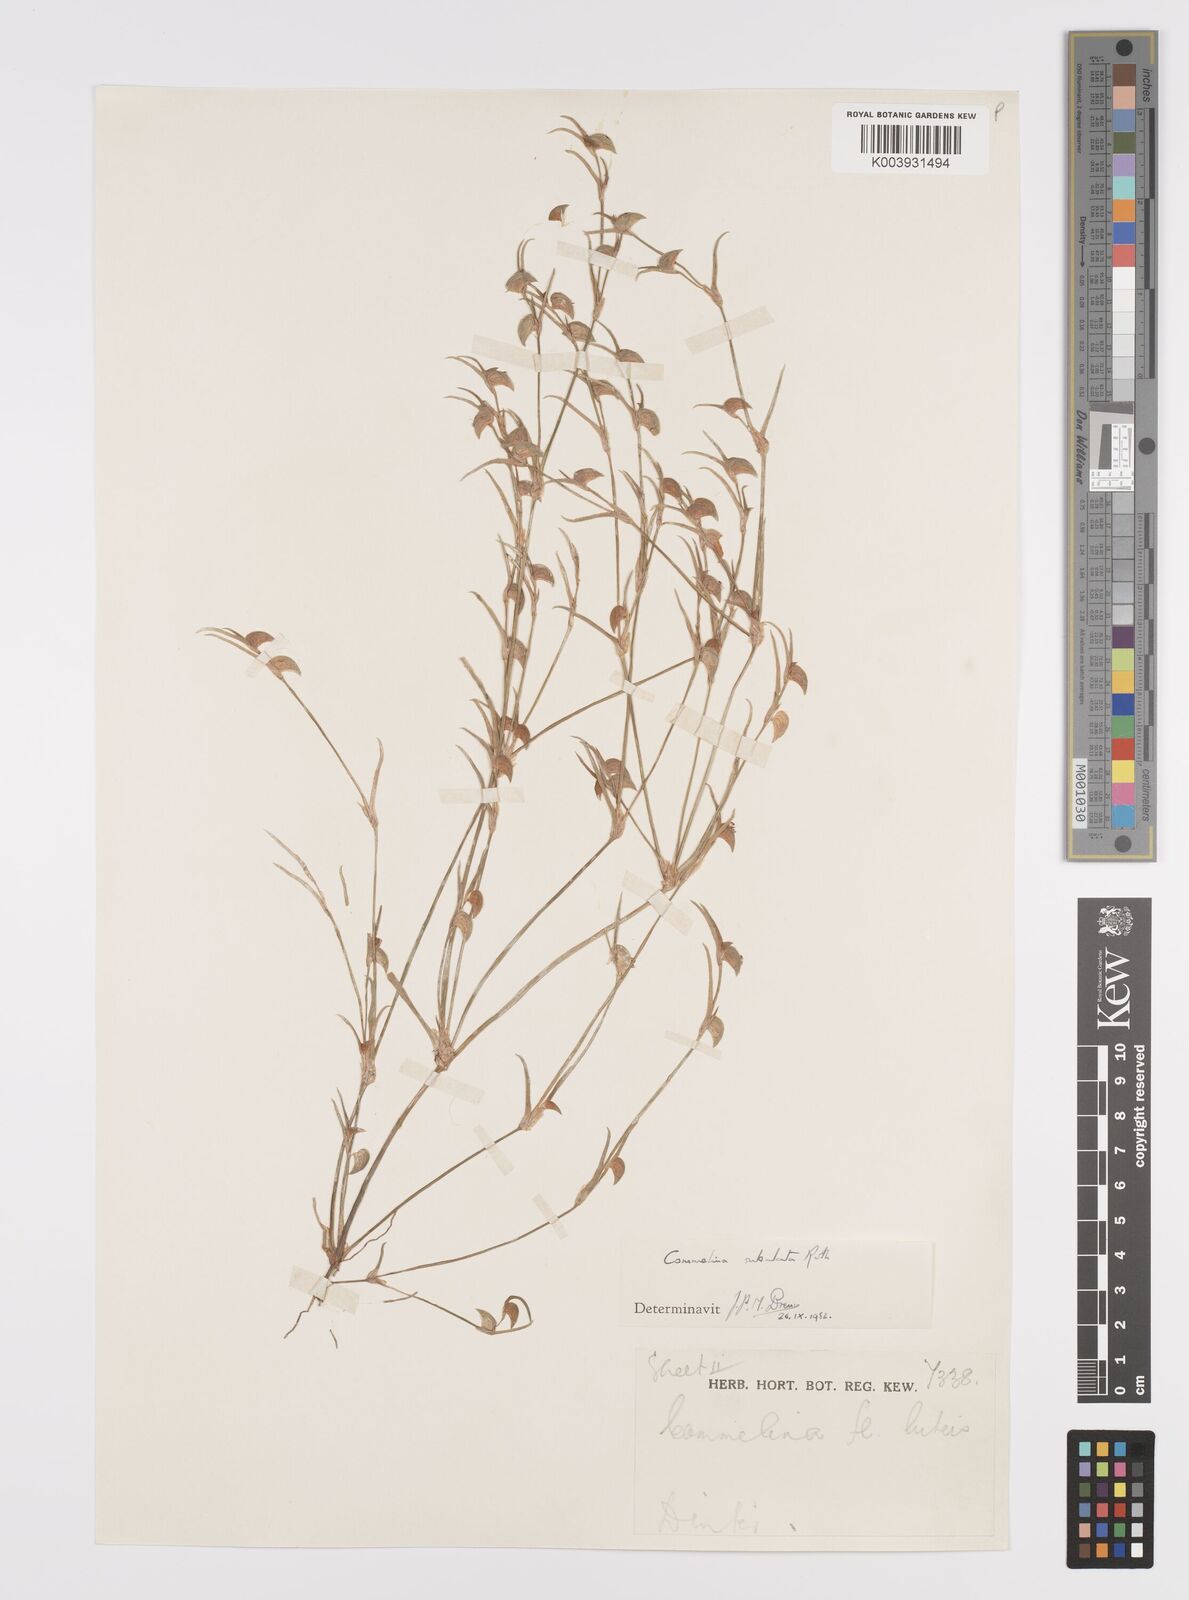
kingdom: Plantae
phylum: Tracheophyta
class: Liliopsida
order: Commelinales
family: Commelinaceae
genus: Commelina
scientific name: Commelina subulata
